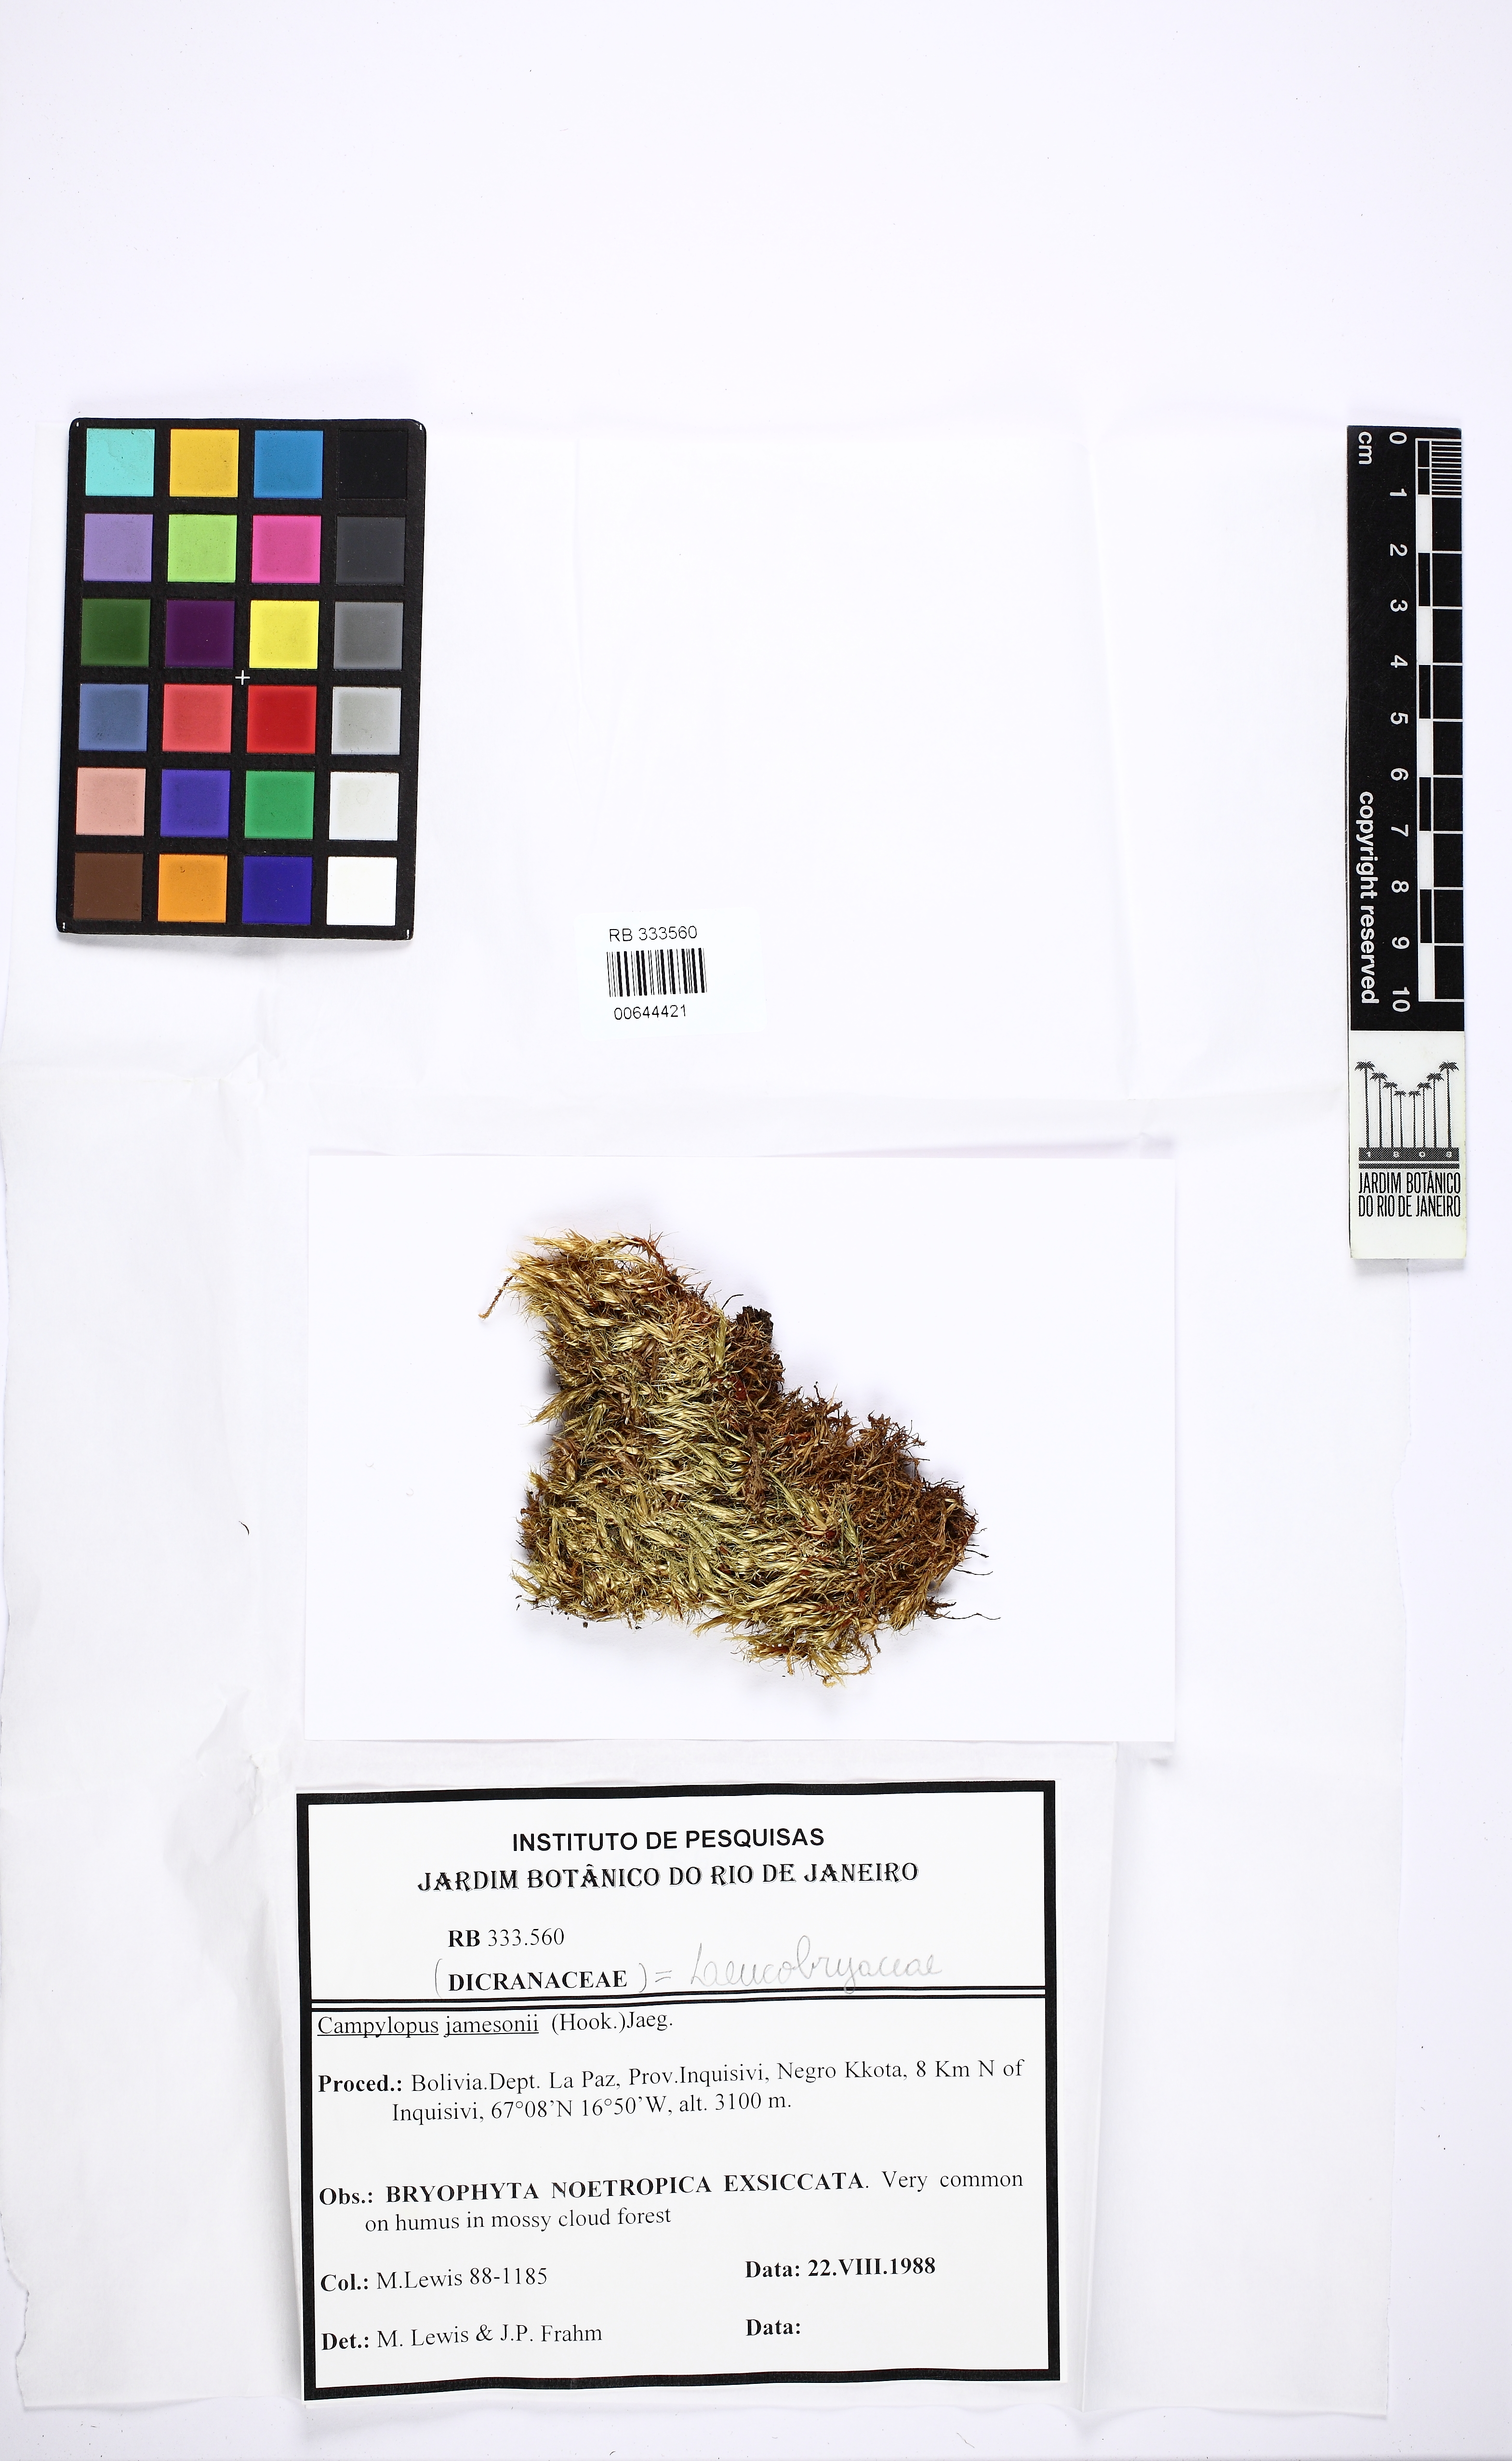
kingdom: Plantae
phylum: Bryophyta
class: Bryopsida
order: Dicranales
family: Leucobryaceae
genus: Campylopus
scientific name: Campylopus jamesonii
